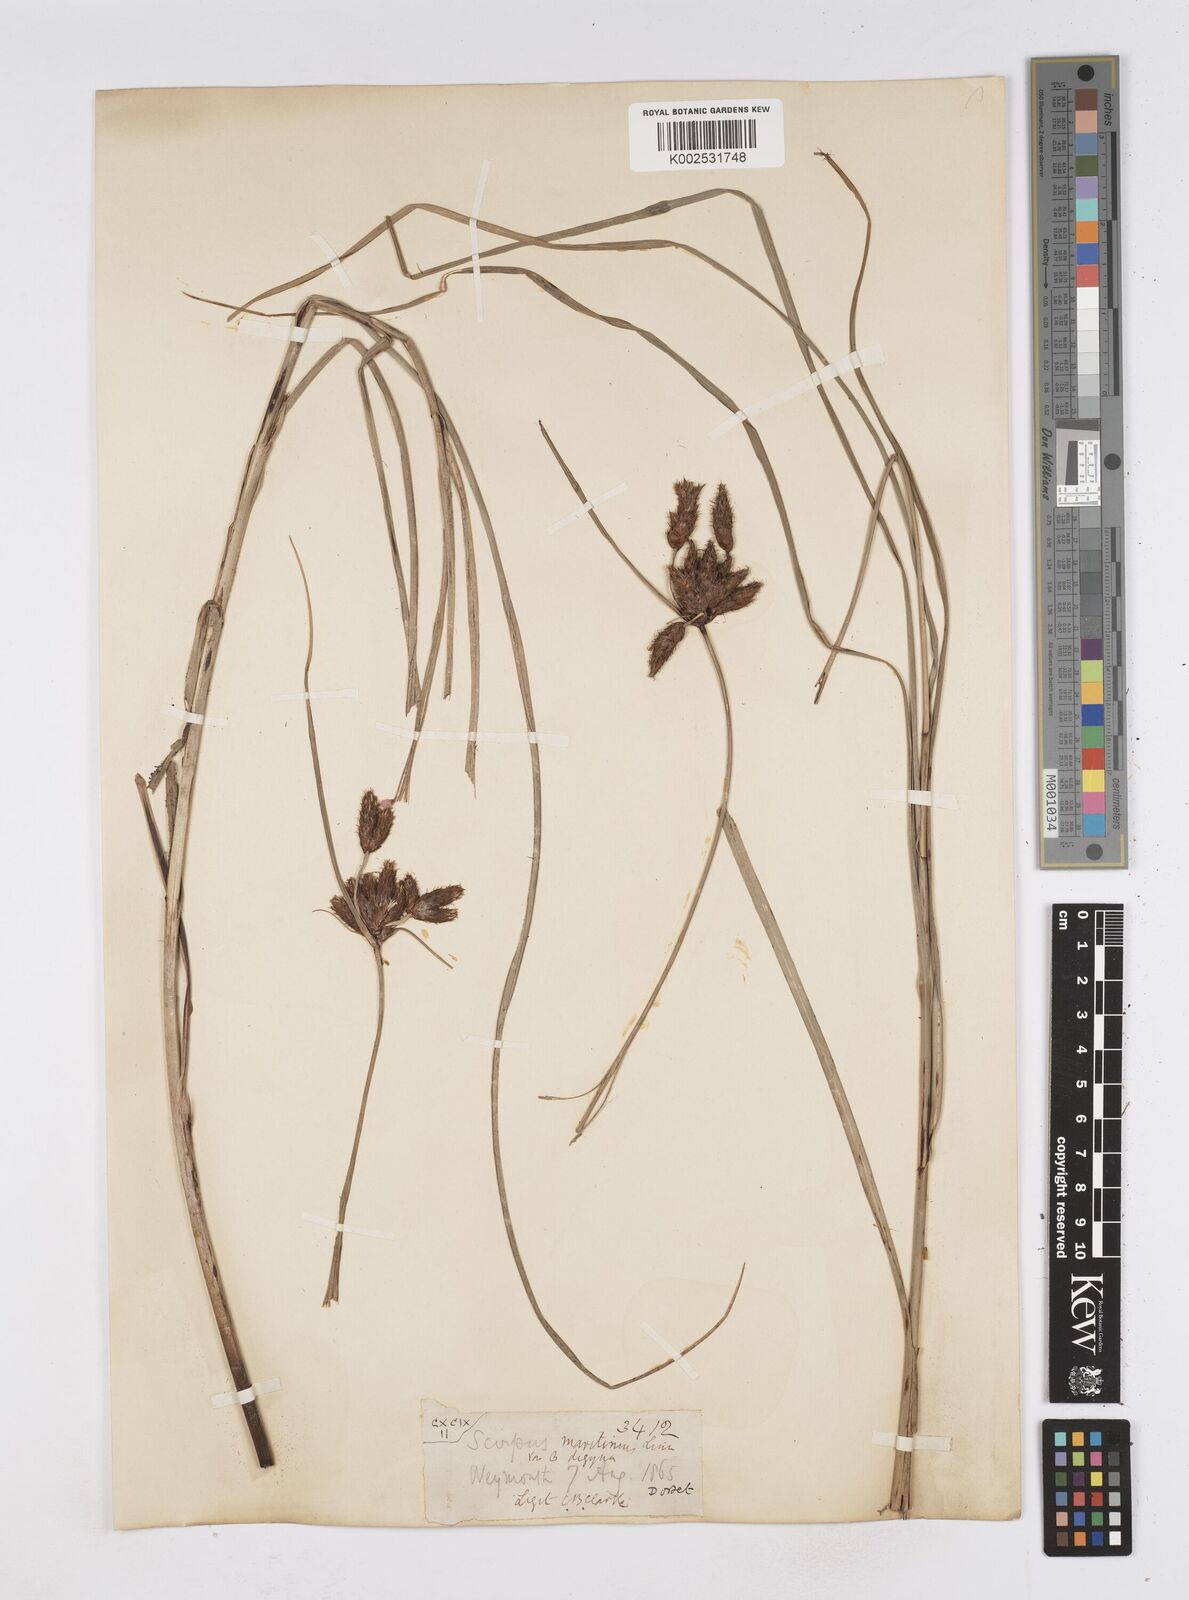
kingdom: Plantae
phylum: Tracheophyta
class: Liliopsida
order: Poales
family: Cyperaceae
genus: Bolboschoenus
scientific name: Bolboschoenus maritimus
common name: Sea club-rush
